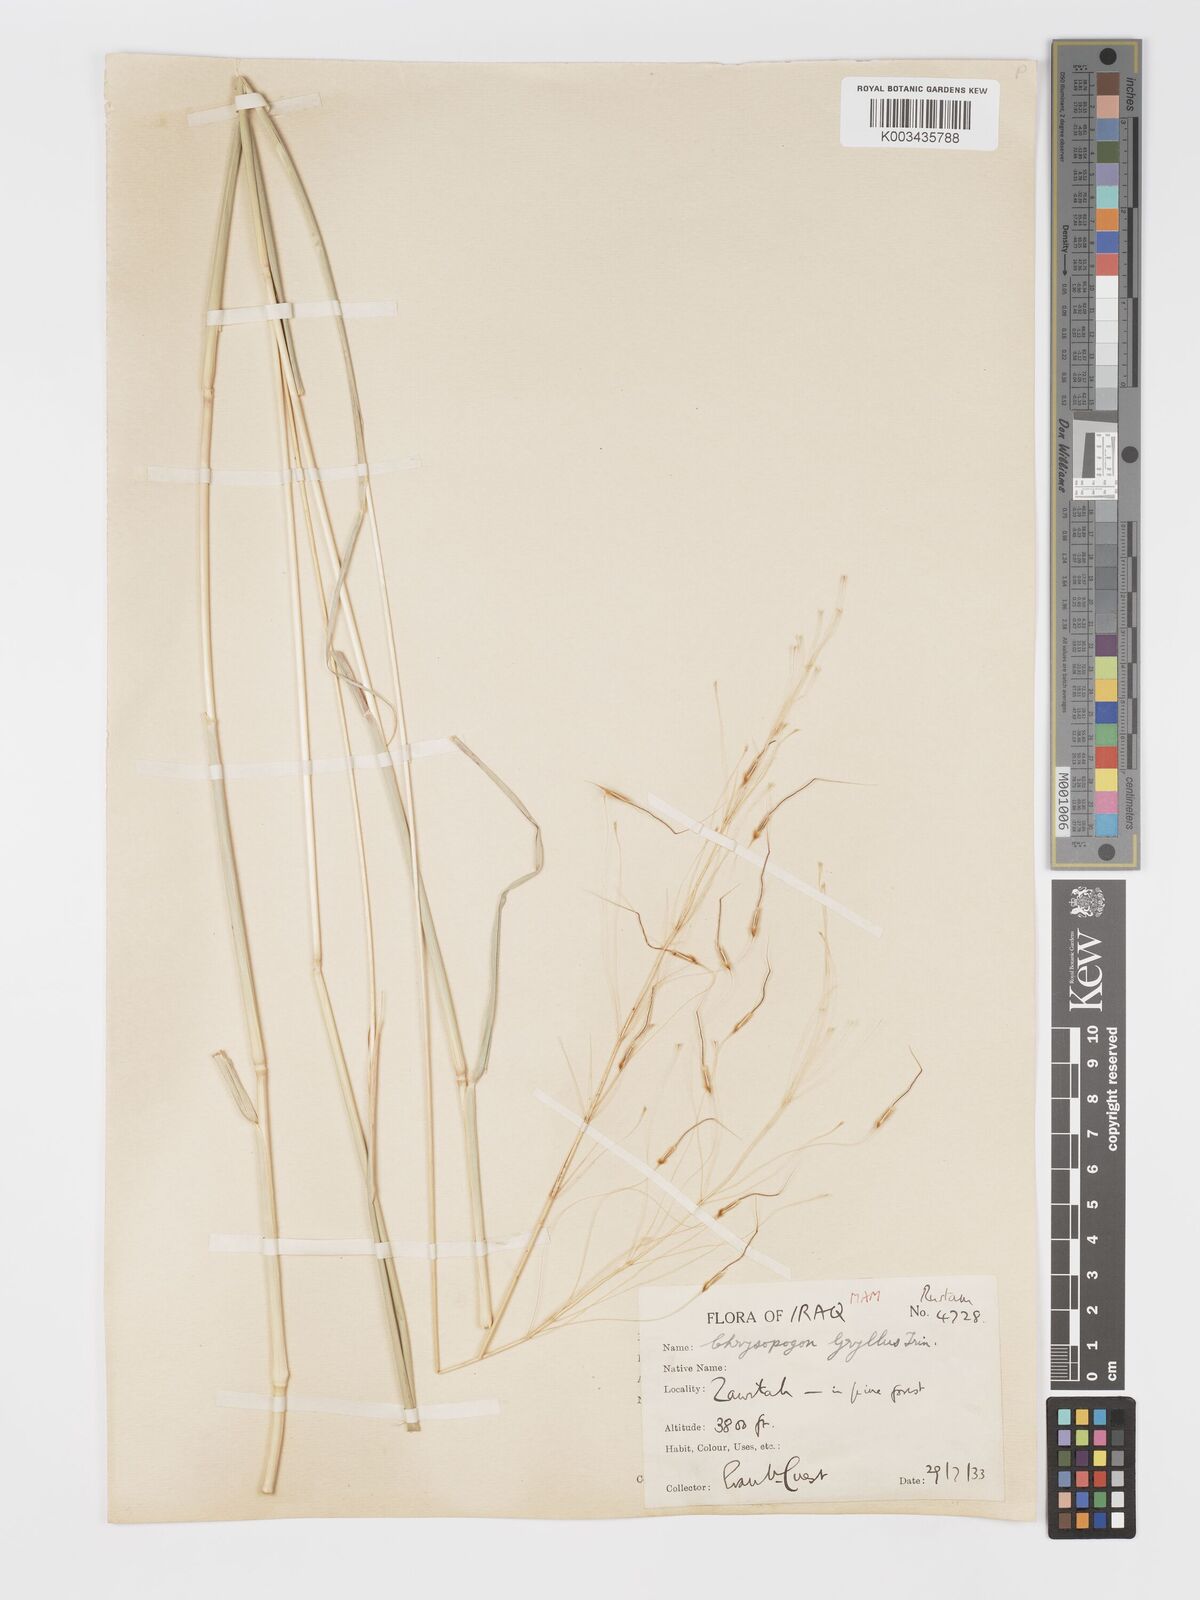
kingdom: Plantae
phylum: Tracheophyta
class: Liliopsida
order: Poales
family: Poaceae
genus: Chrysopogon
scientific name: Chrysopogon gryllus
